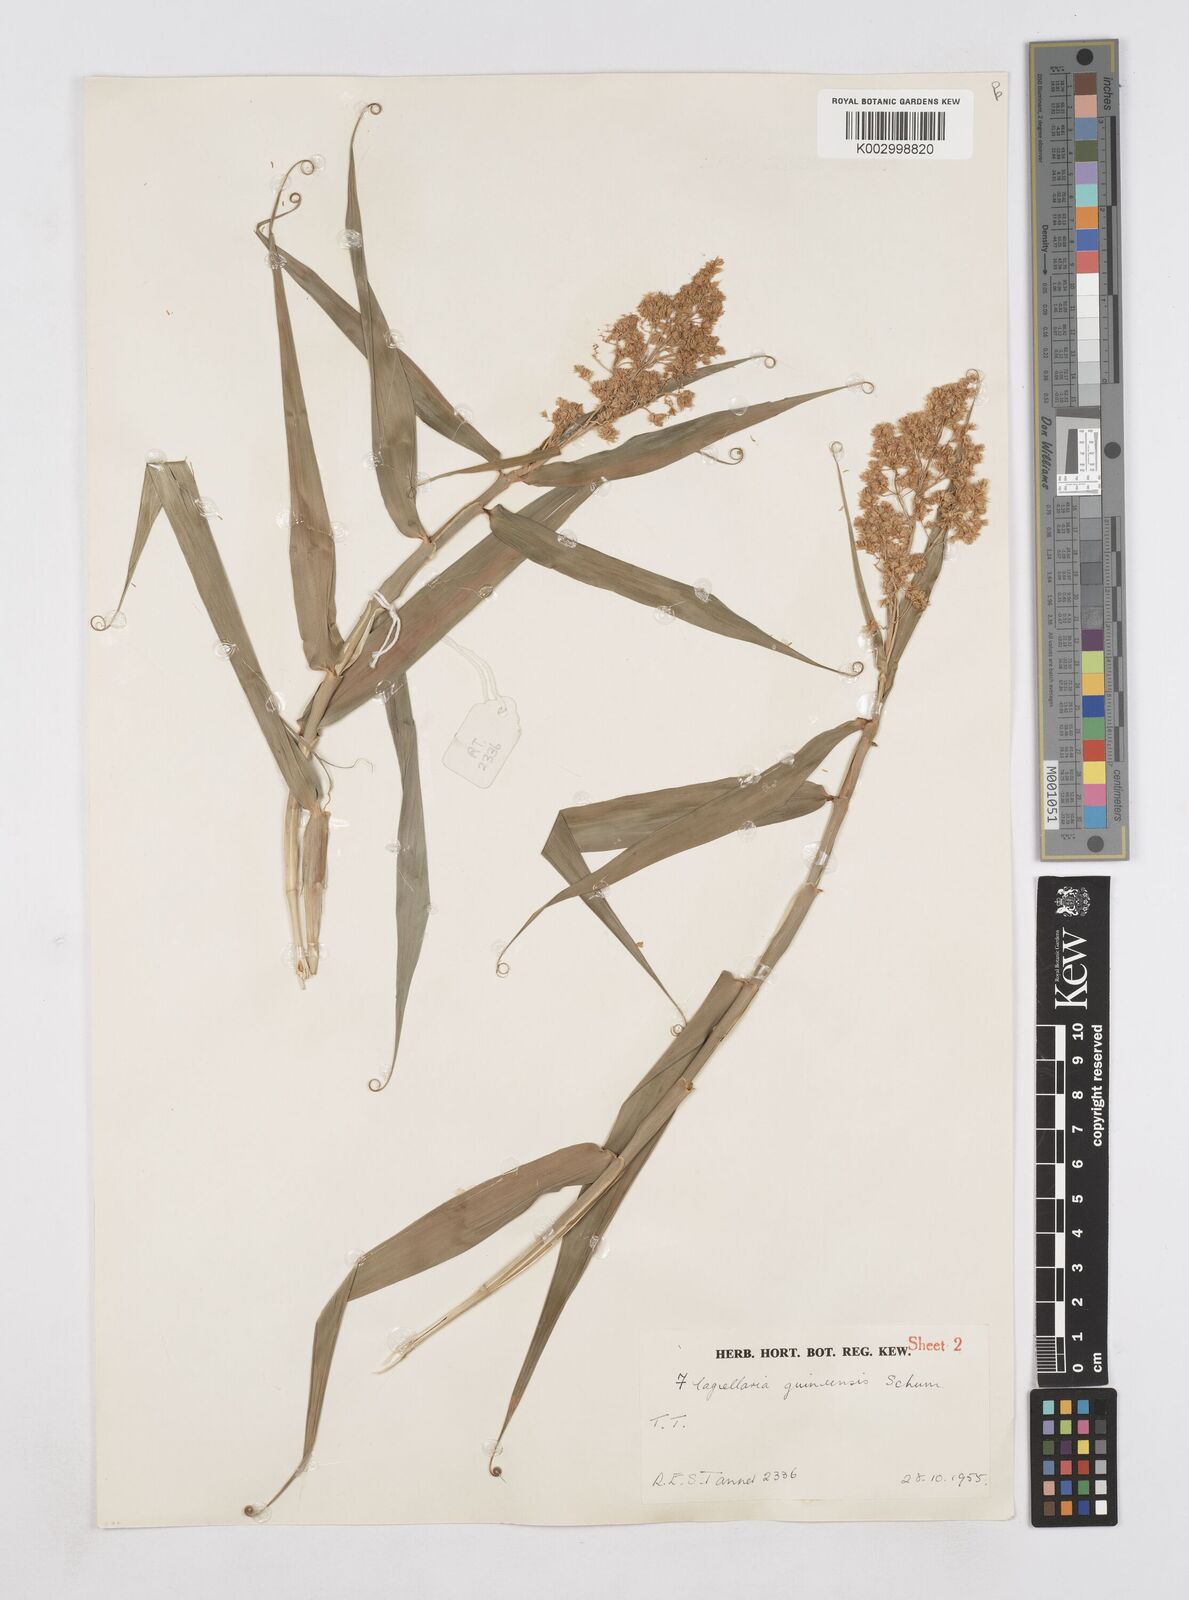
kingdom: Plantae
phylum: Tracheophyta
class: Liliopsida
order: Poales
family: Flagellariaceae
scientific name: Flagellariaceae
